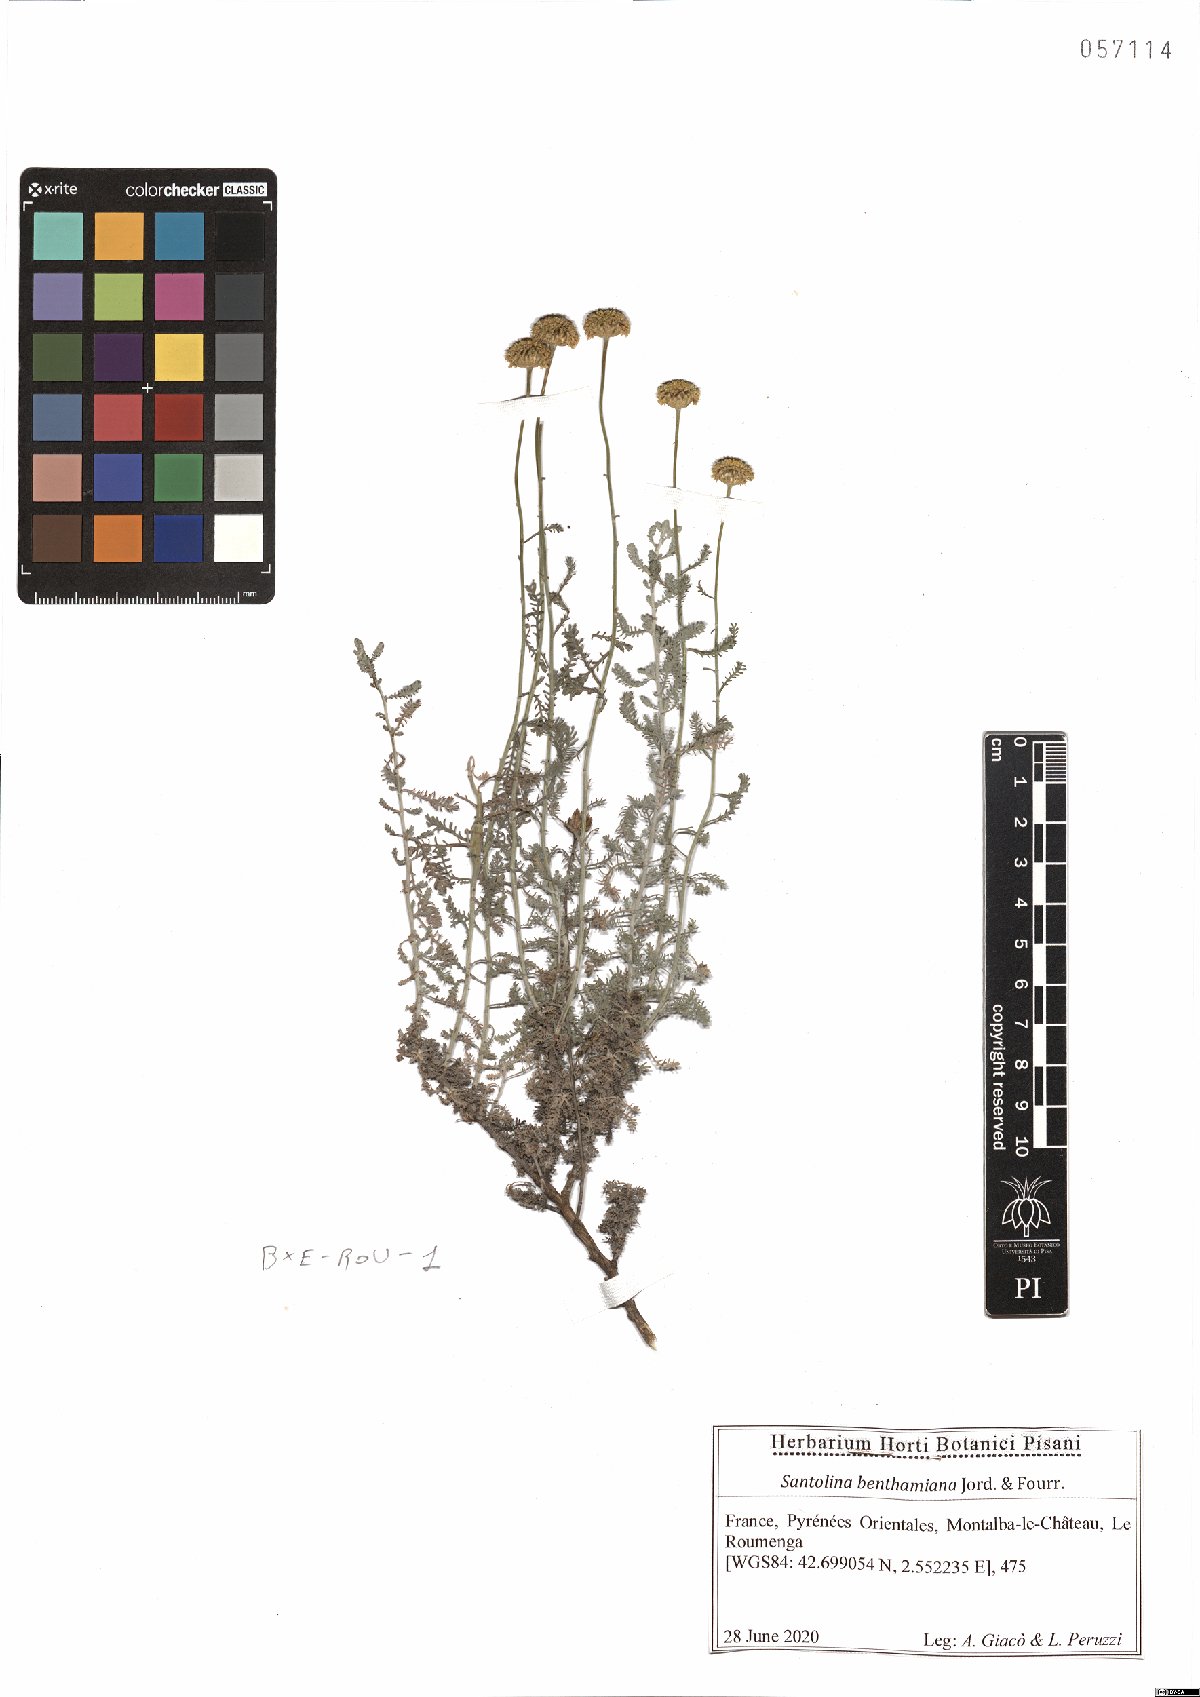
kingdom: Plantae
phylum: Tracheophyta
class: Magnoliopsida
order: Asterales
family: Asteraceae
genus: Santolina
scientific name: Santolina benthamiana
